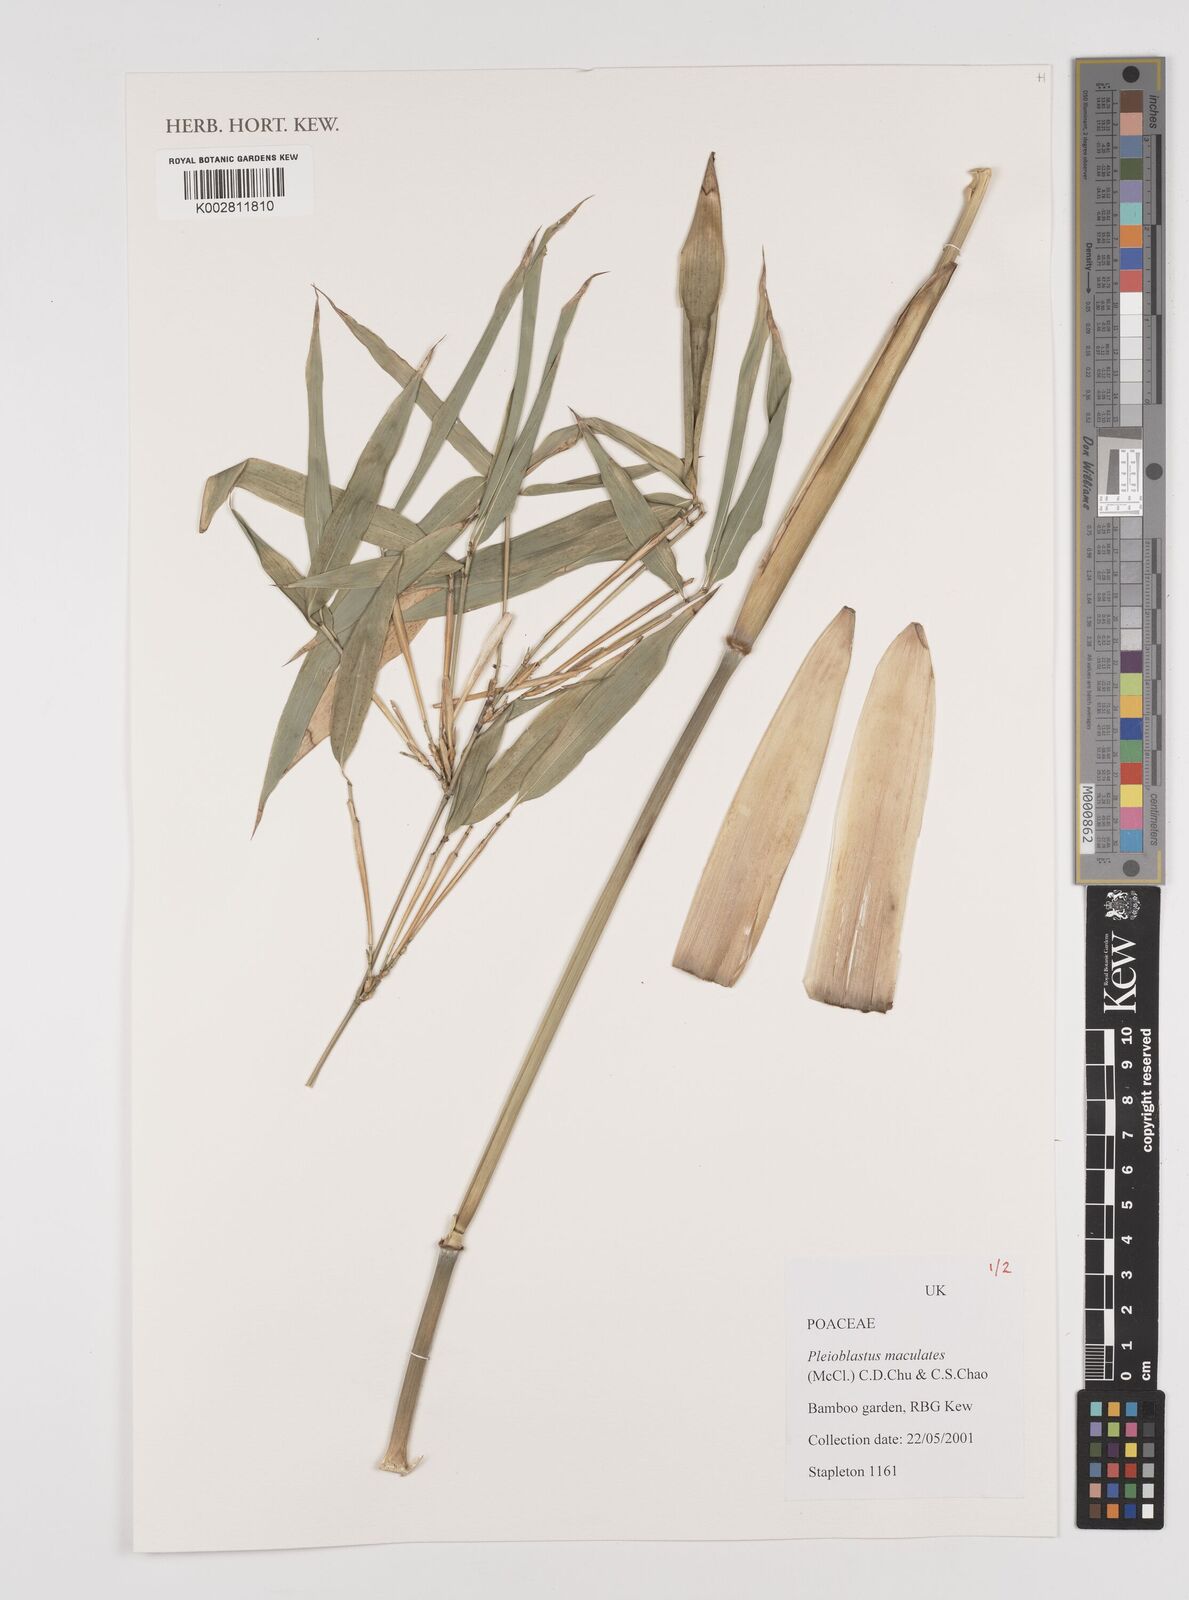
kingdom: Plantae
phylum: Tracheophyta
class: Liliopsida
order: Poales
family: Poaceae
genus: Aulonemia
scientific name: Aulonemia parviflora
